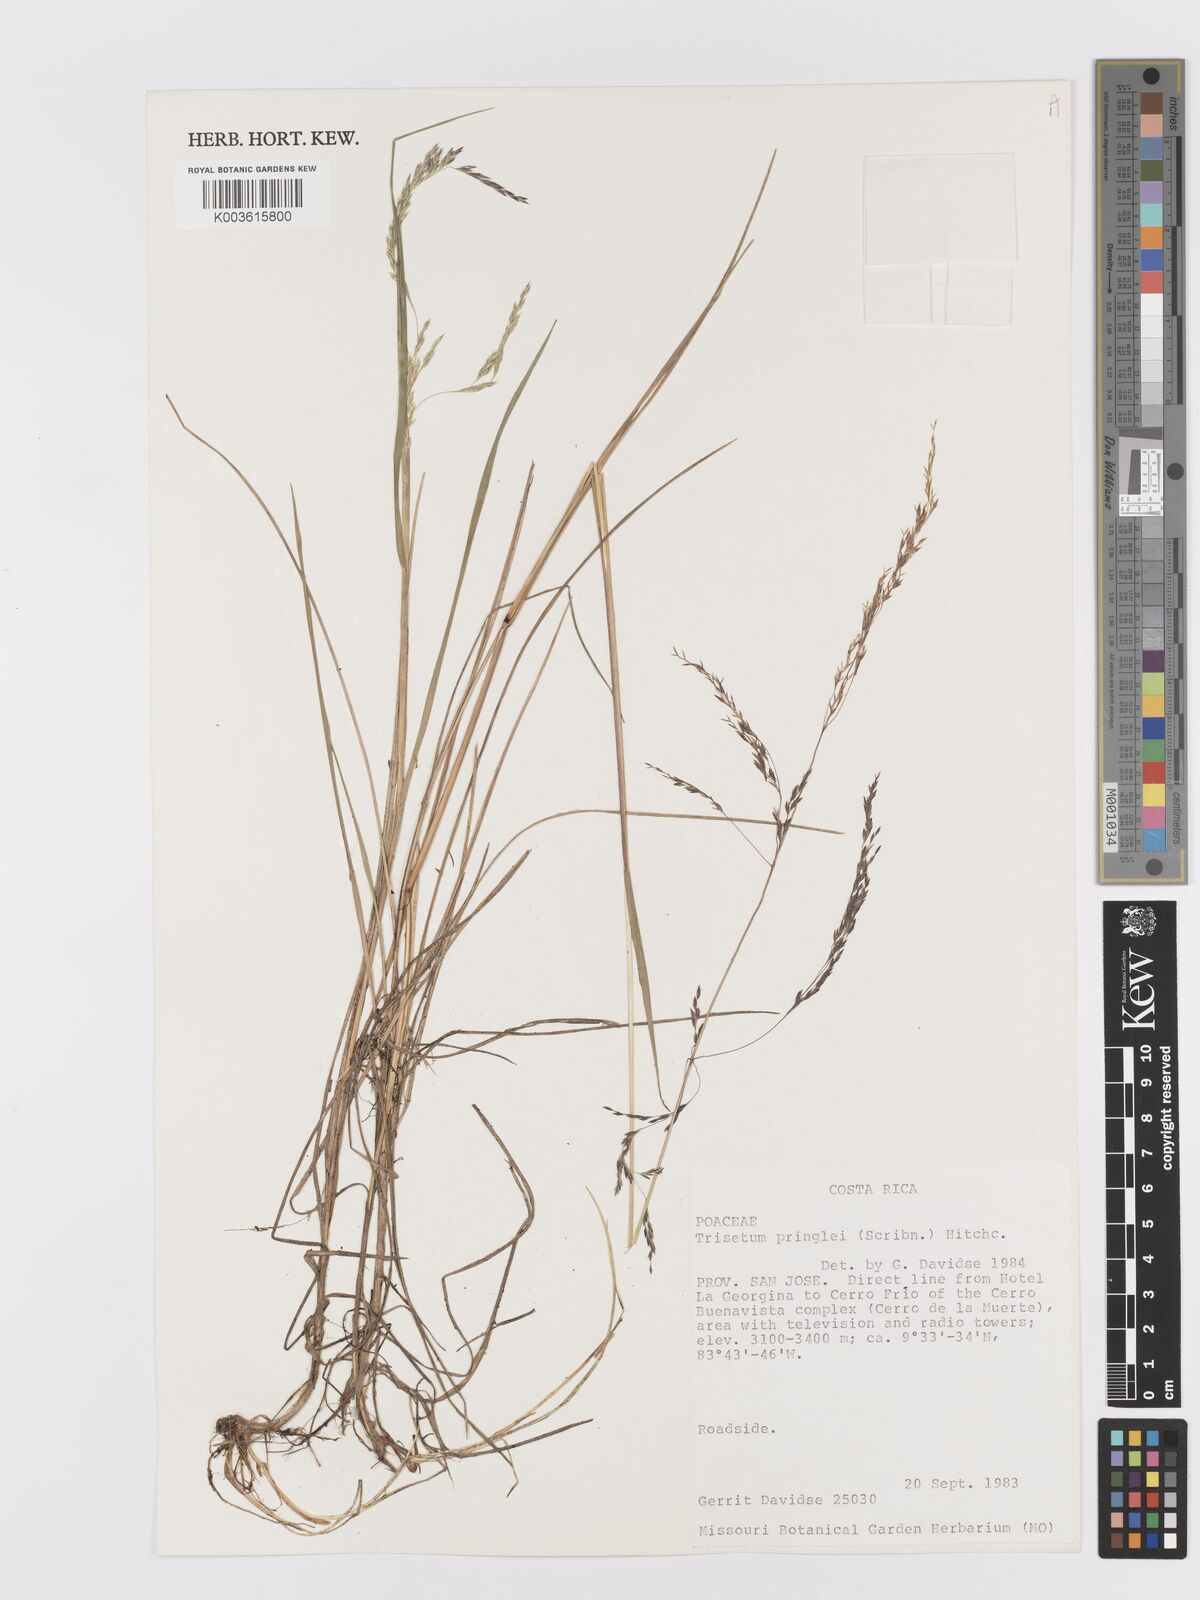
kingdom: Plantae
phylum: Tracheophyta
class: Liliopsida
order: Poales
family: Poaceae
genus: Peyritschia
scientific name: Peyritschia graphephoroides
